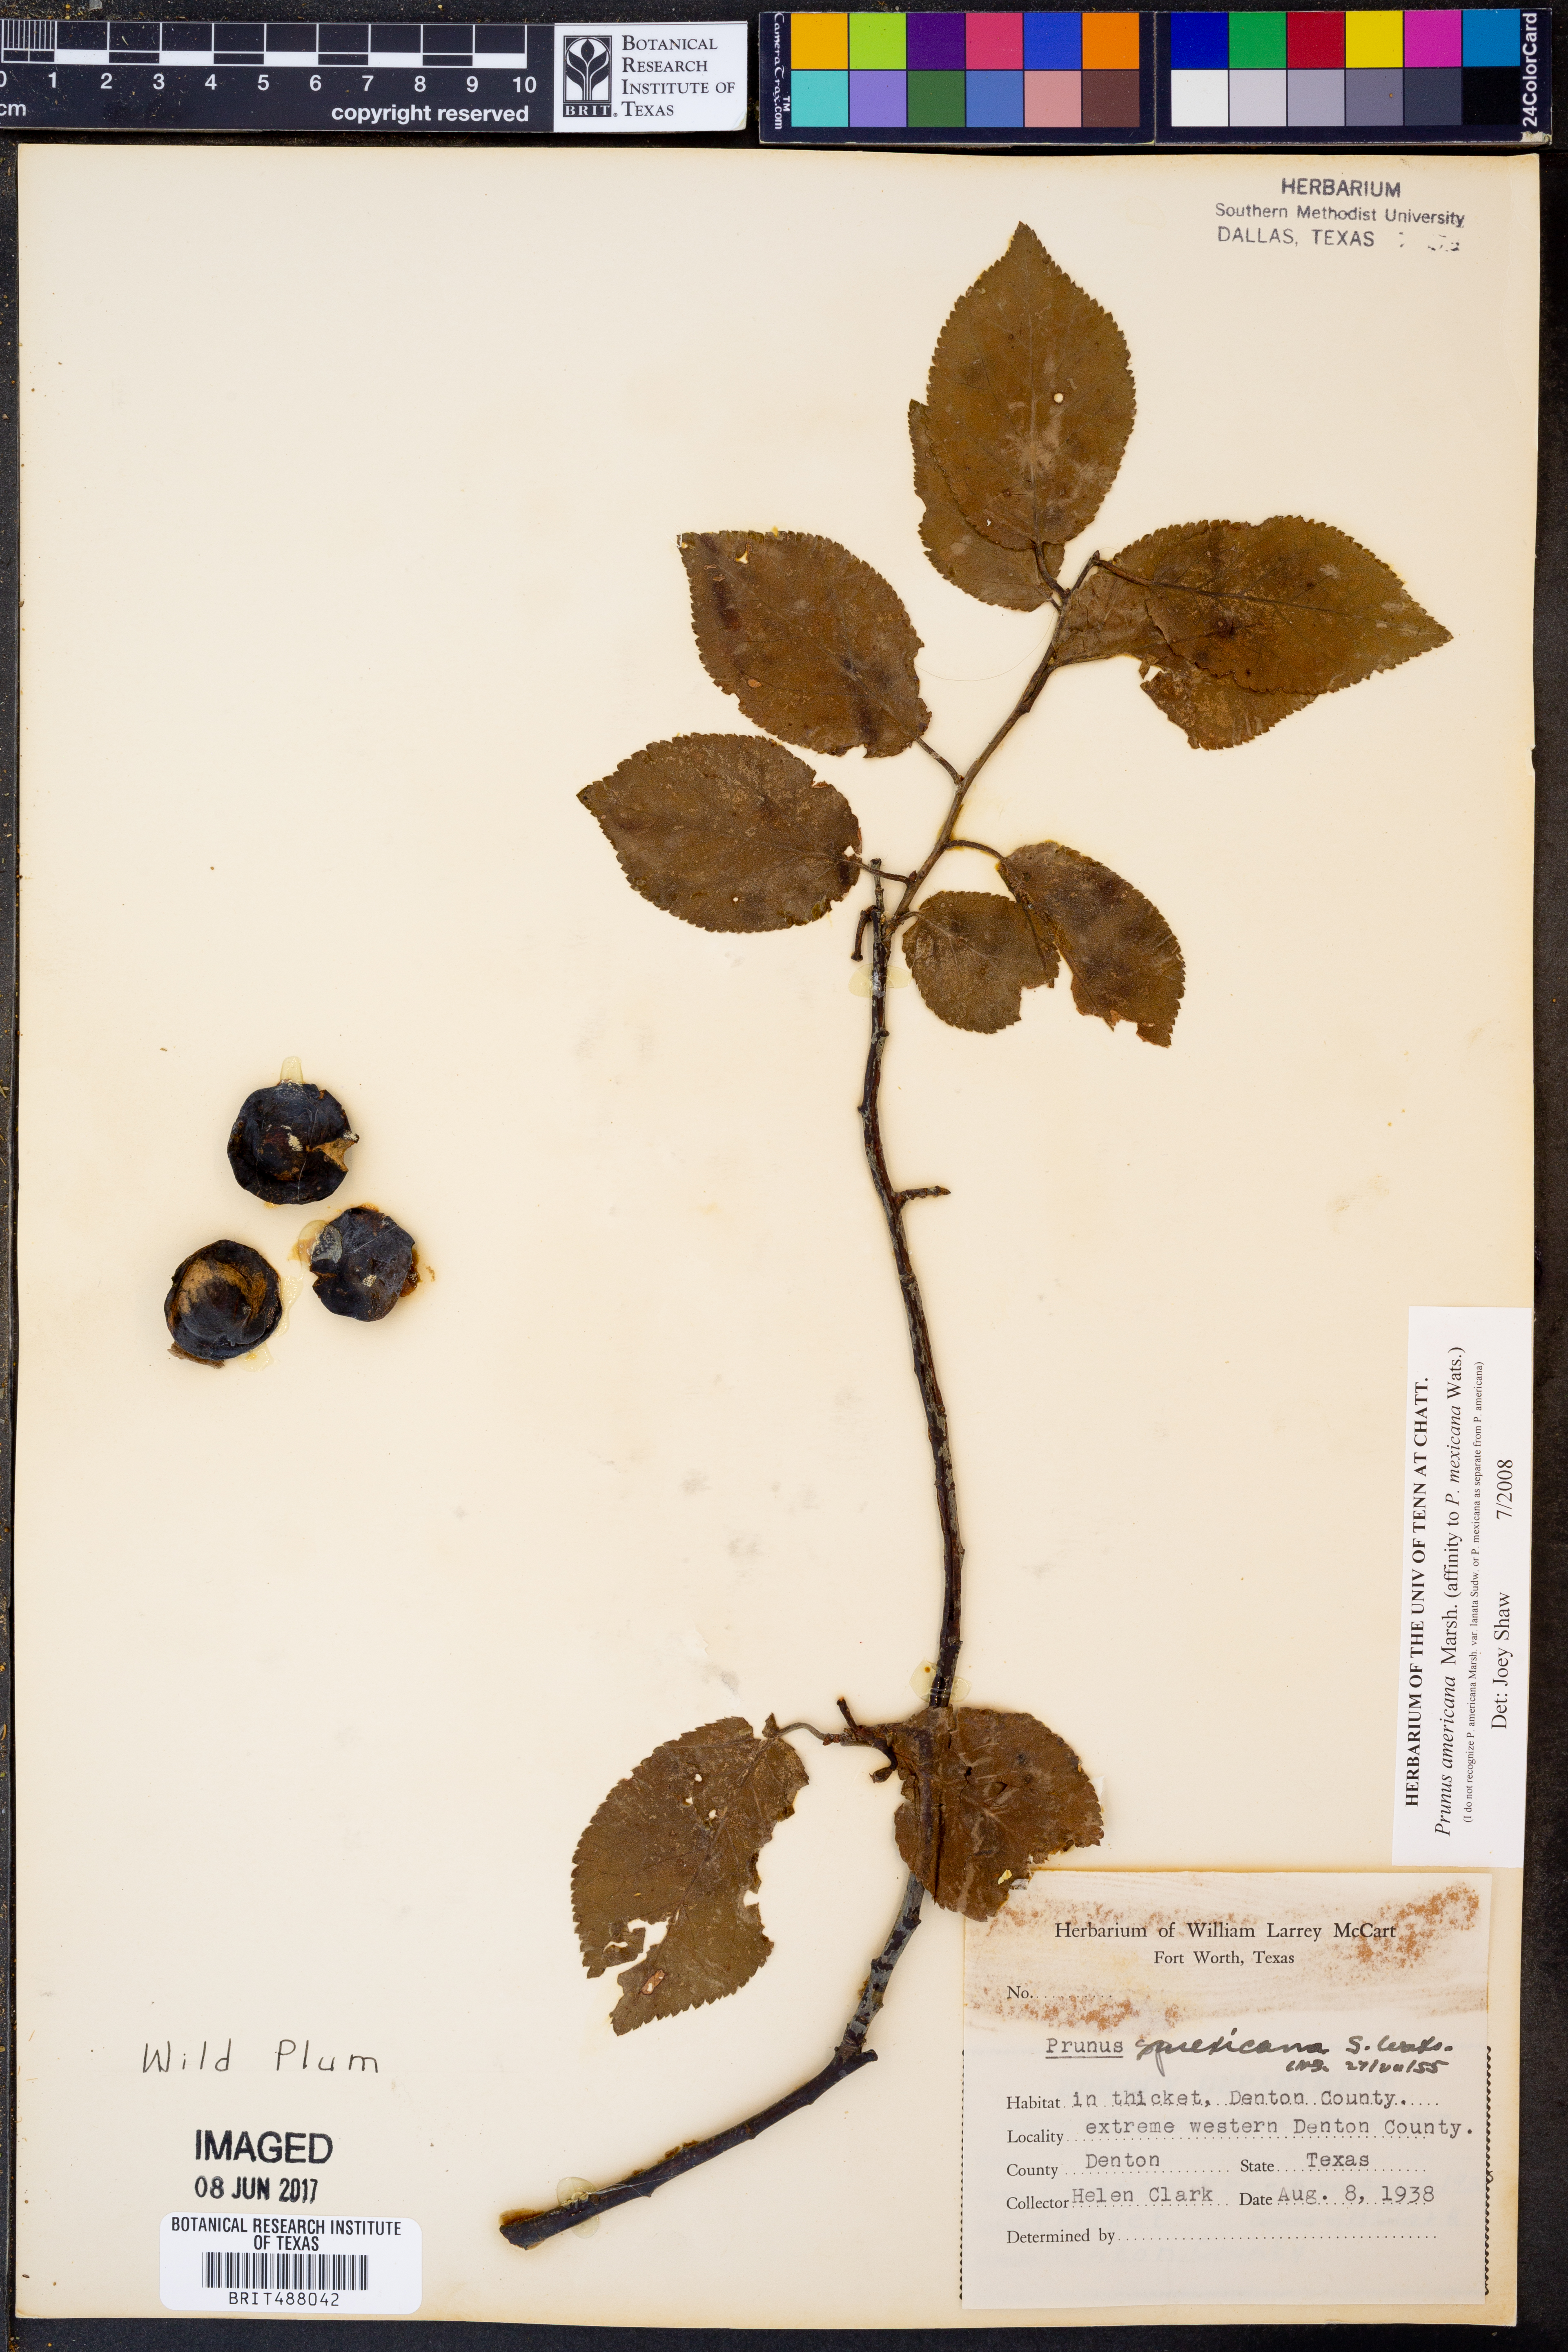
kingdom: Plantae
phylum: Tracheophyta
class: Magnoliopsida
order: Rosales
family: Rosaceae
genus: Prunus
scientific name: Prunus americana
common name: American plum
